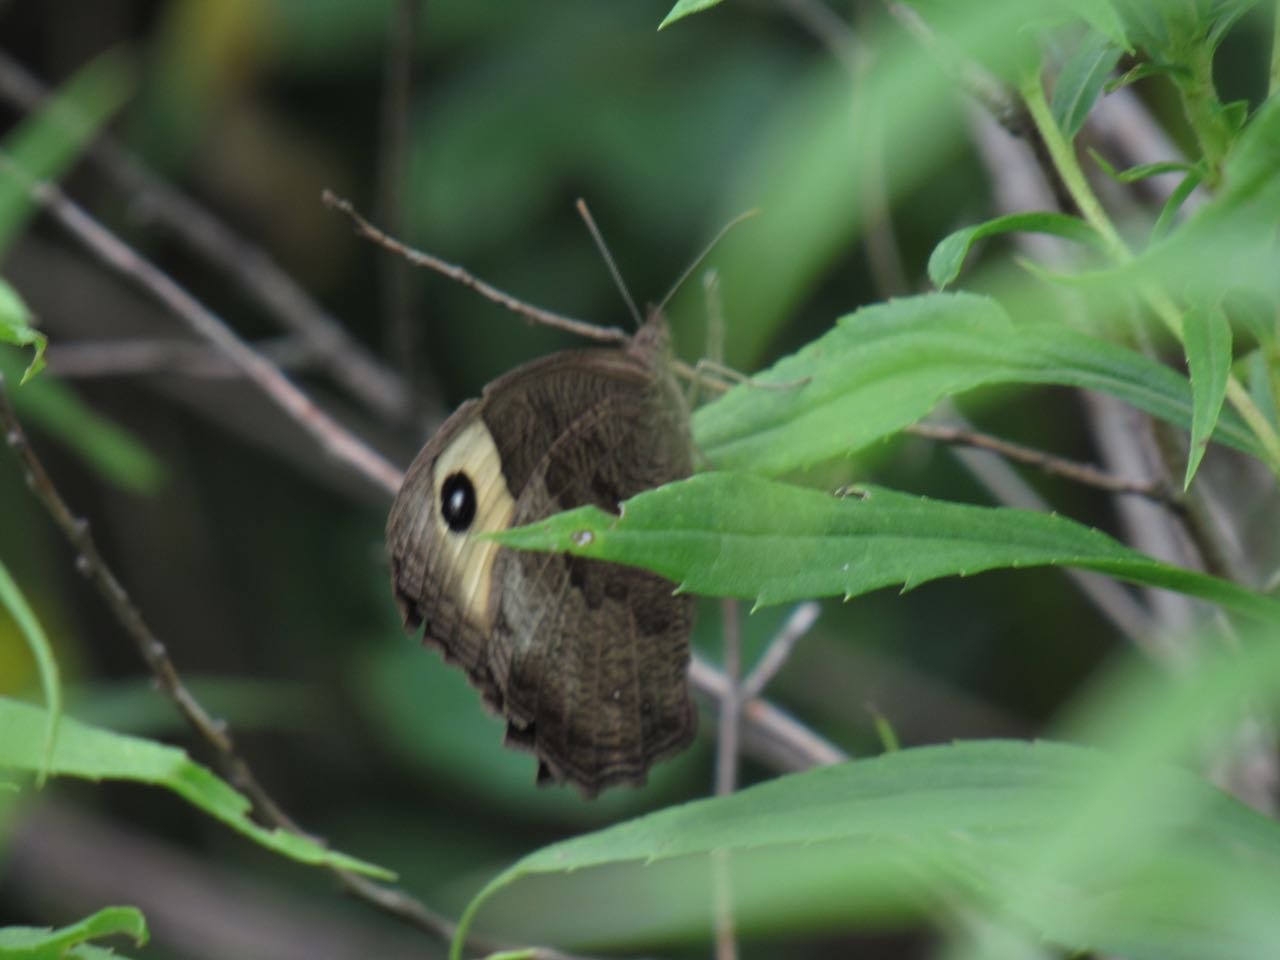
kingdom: Animalia
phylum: Arthropoda
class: Insecta
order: Lepidoptera
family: Nymphalidae
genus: Cercyonis
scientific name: Cercyonis pegala
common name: Common Wood-Nymph
